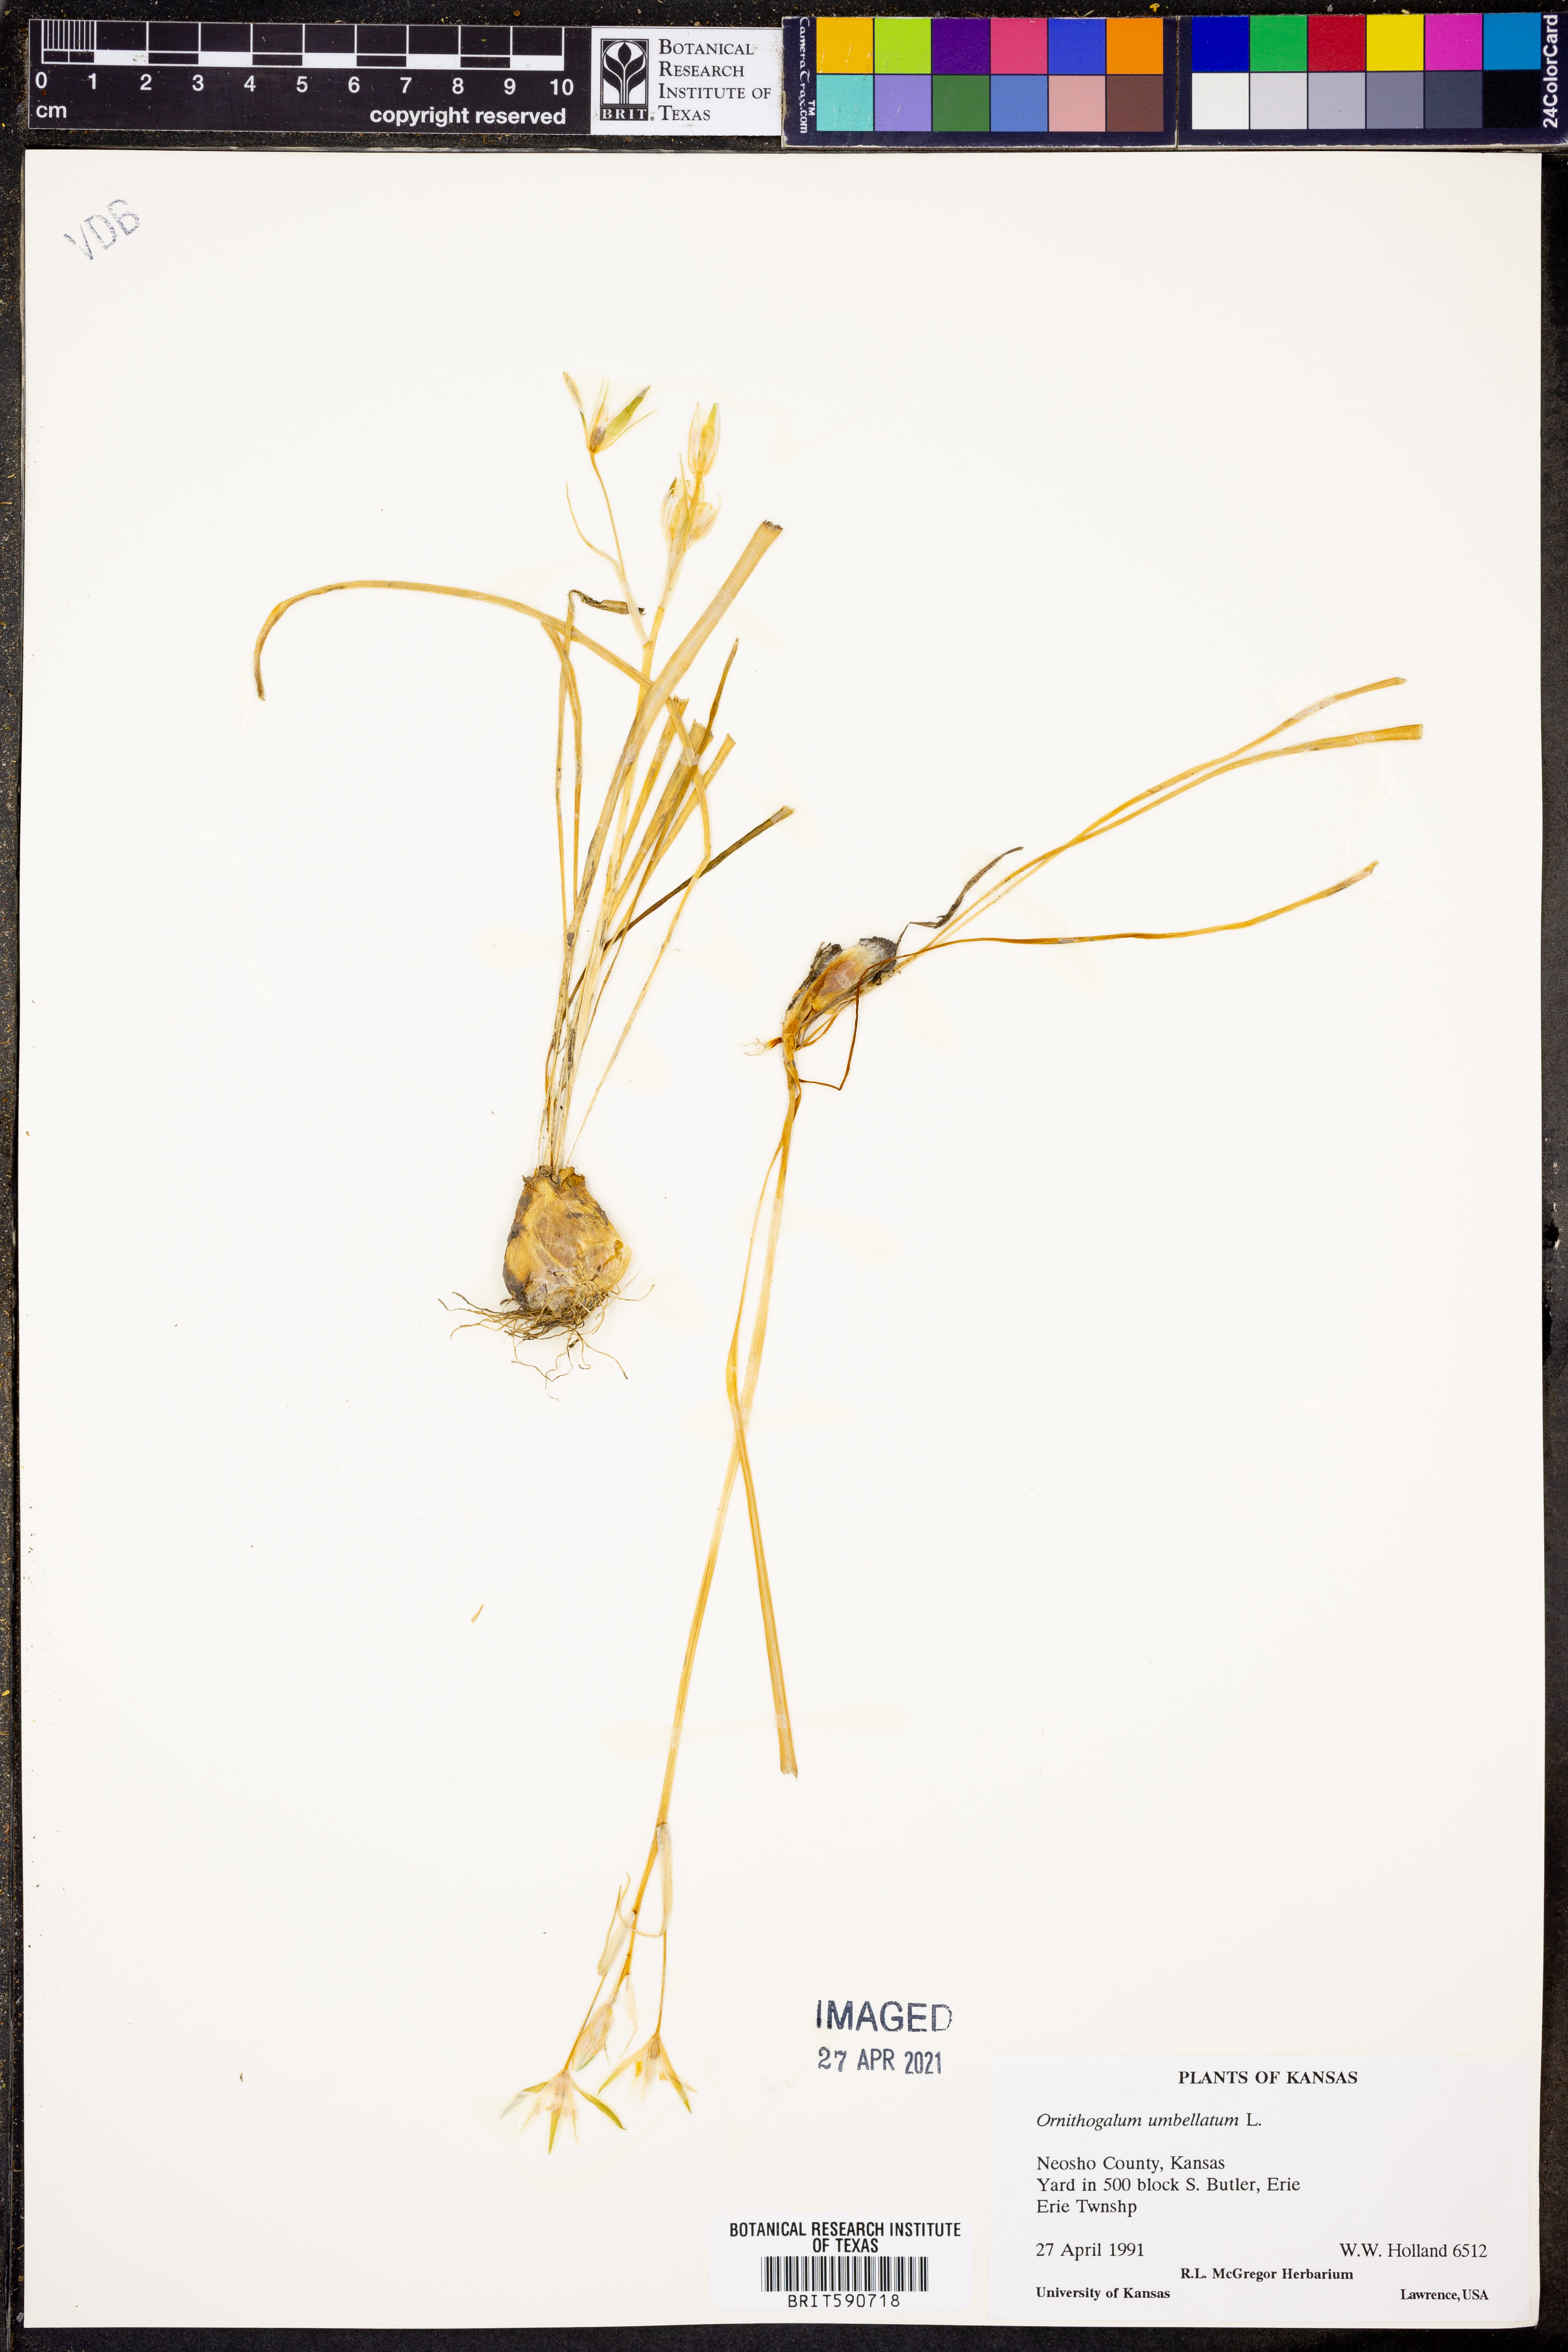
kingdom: Plantae
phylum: Tracheophyta
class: Liliopsida
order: Asparagales
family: Asparagaceae
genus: Ornithogalum
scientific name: Ornithogalum umbellatum
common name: Garden star-of-bethlehem
